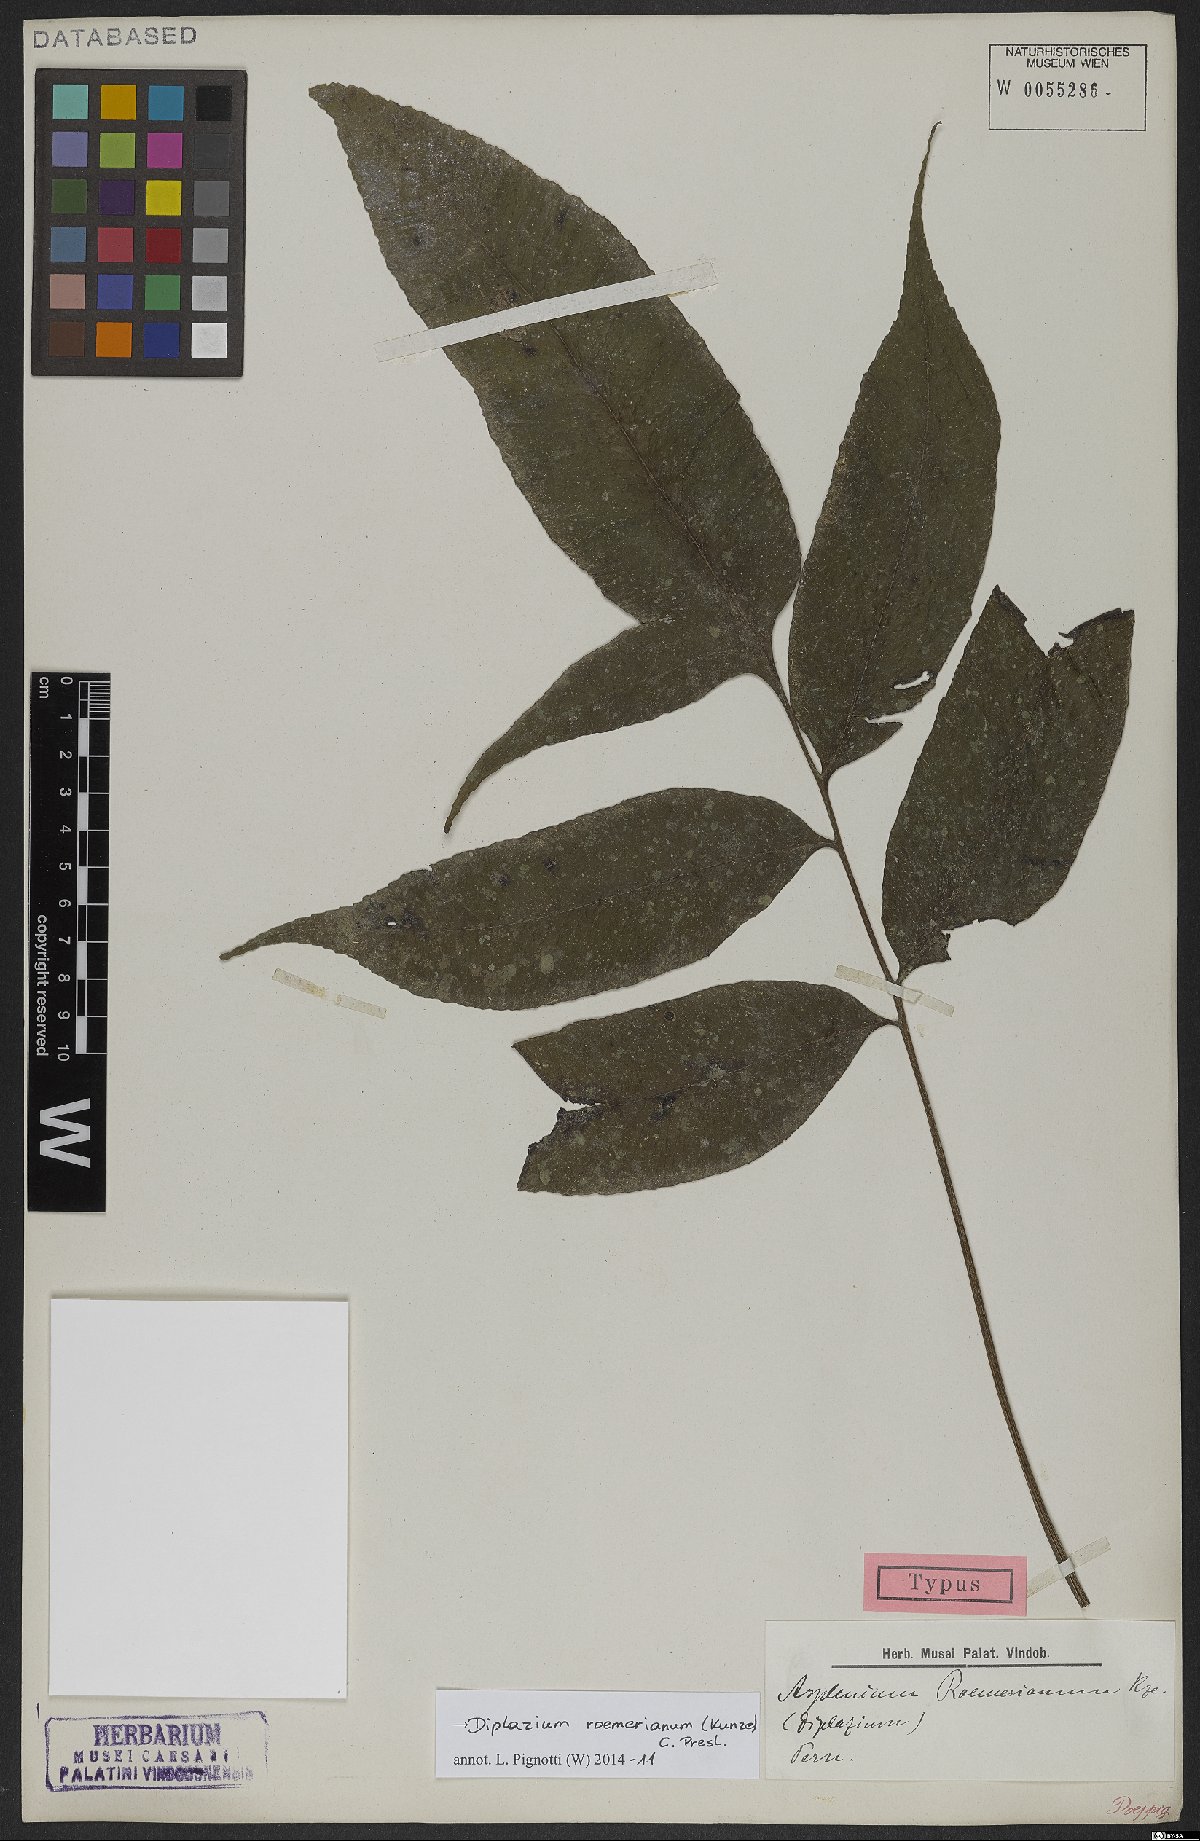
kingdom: Plantae
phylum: Tracheophyta
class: Polypodiopsida
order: Polypodiales
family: Athyriaceae
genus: Diplazium
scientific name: Diplazium roemerianum
